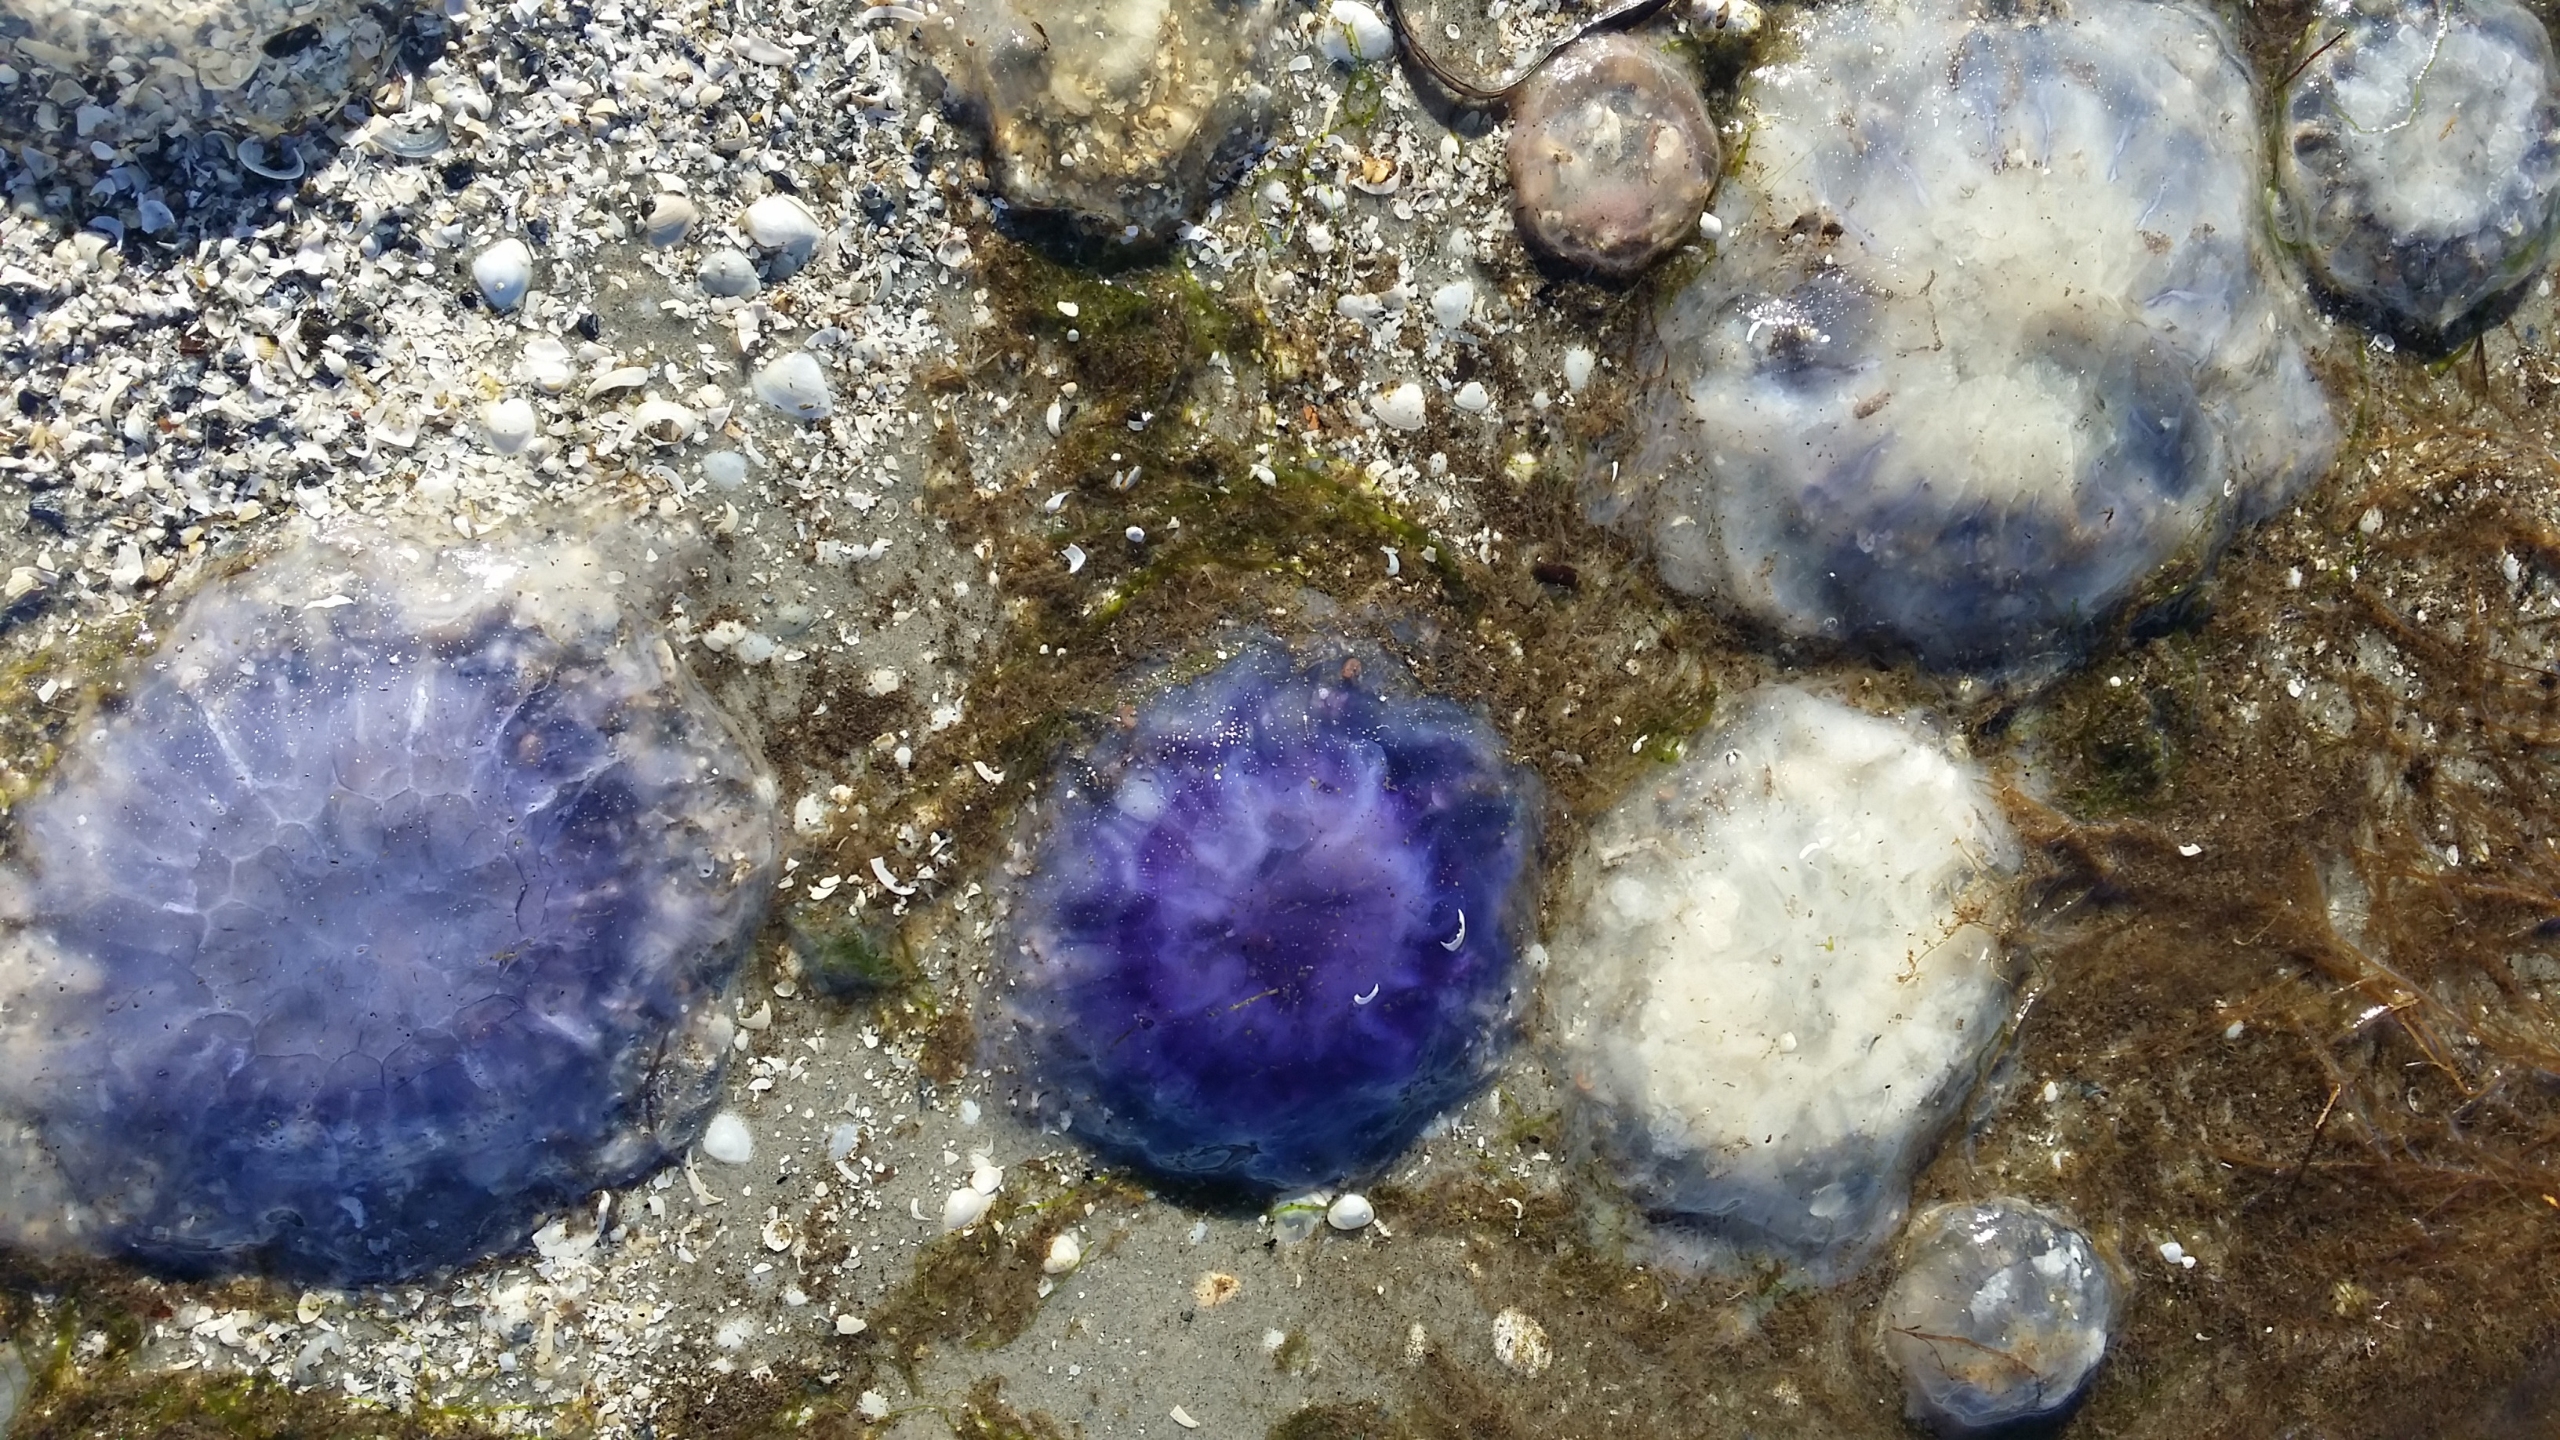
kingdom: Animalia
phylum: Cnidaria
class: Scyphozoa
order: Semaeostomeae
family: Cyaneidae
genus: Cyanea
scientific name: Cyanea lamarckii
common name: Blå brandmand
